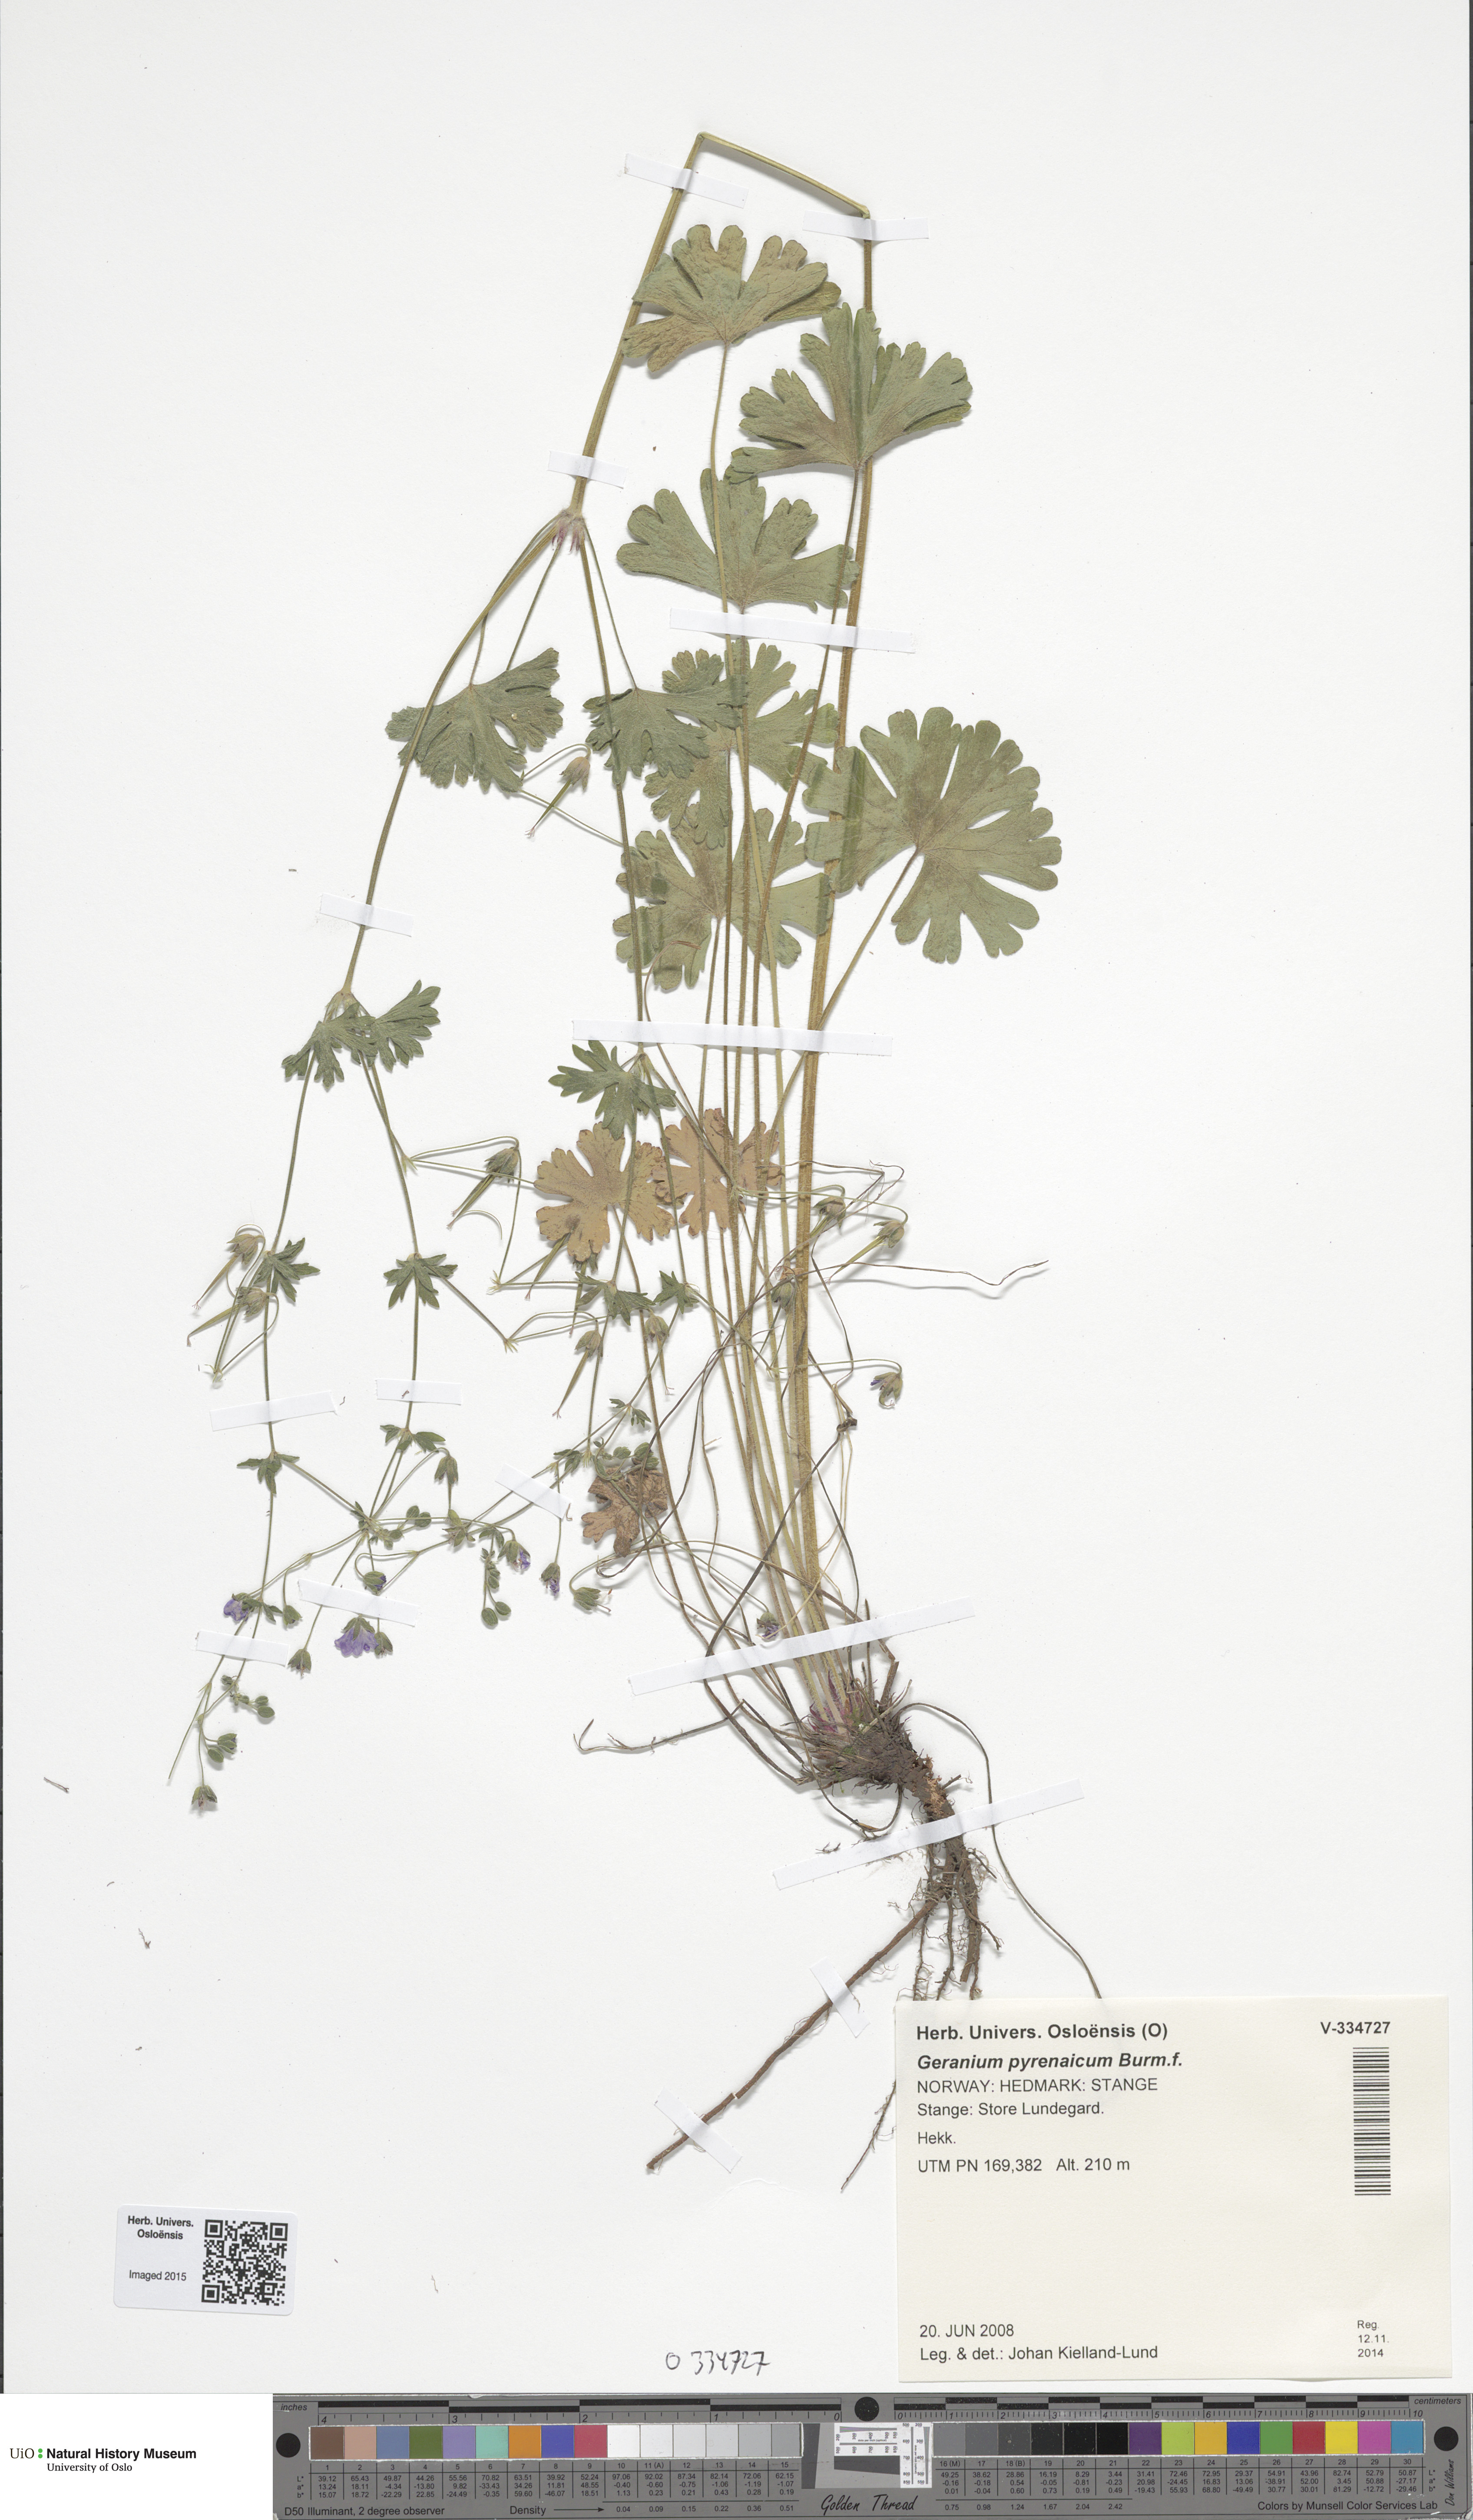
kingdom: Plantae
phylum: Tracheophyta
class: Magnoliopsida
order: Geraniales
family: Geraniaceae
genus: Geranium
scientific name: Geranium pyrenaicum
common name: Hedgerow crane's-bill
